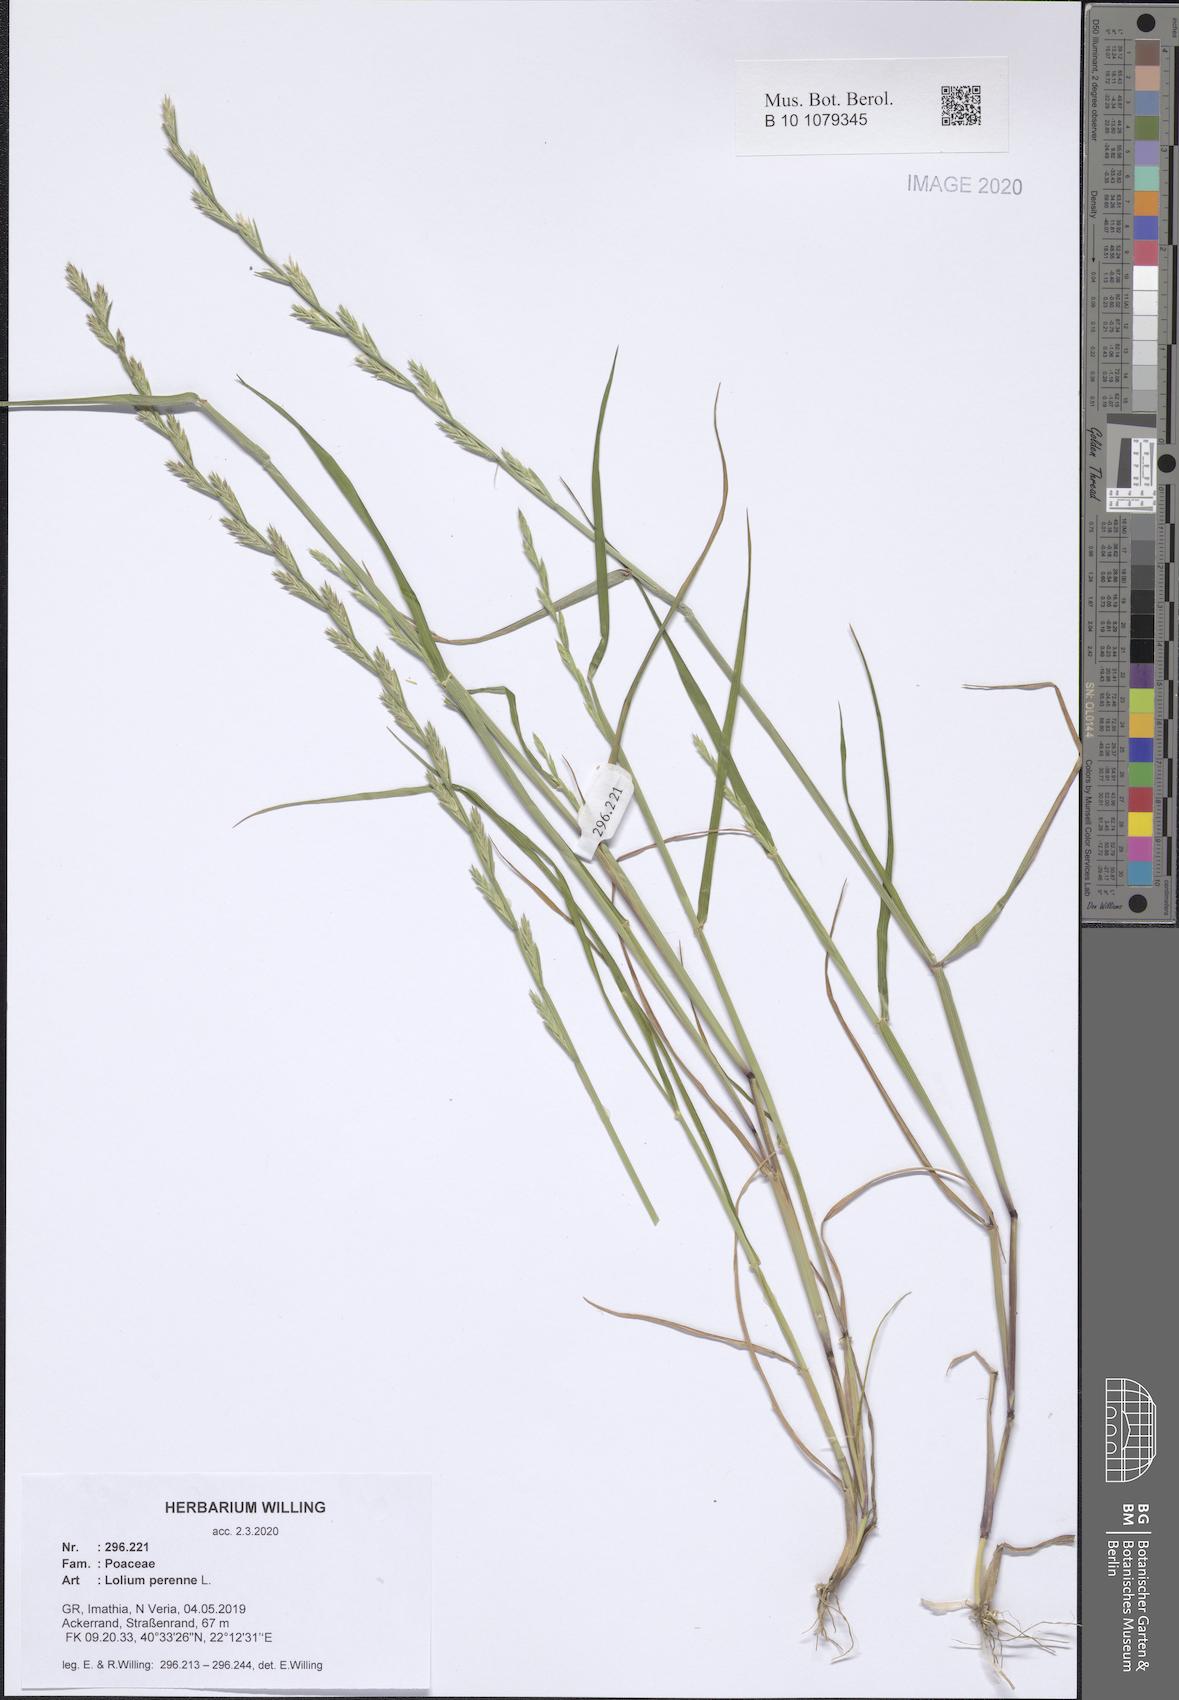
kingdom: Plantae
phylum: Tracheophyta
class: Liliopsida
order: Poales
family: Poaceae
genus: Lolium
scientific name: Lolium perenne
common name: Perennial ryegrass
